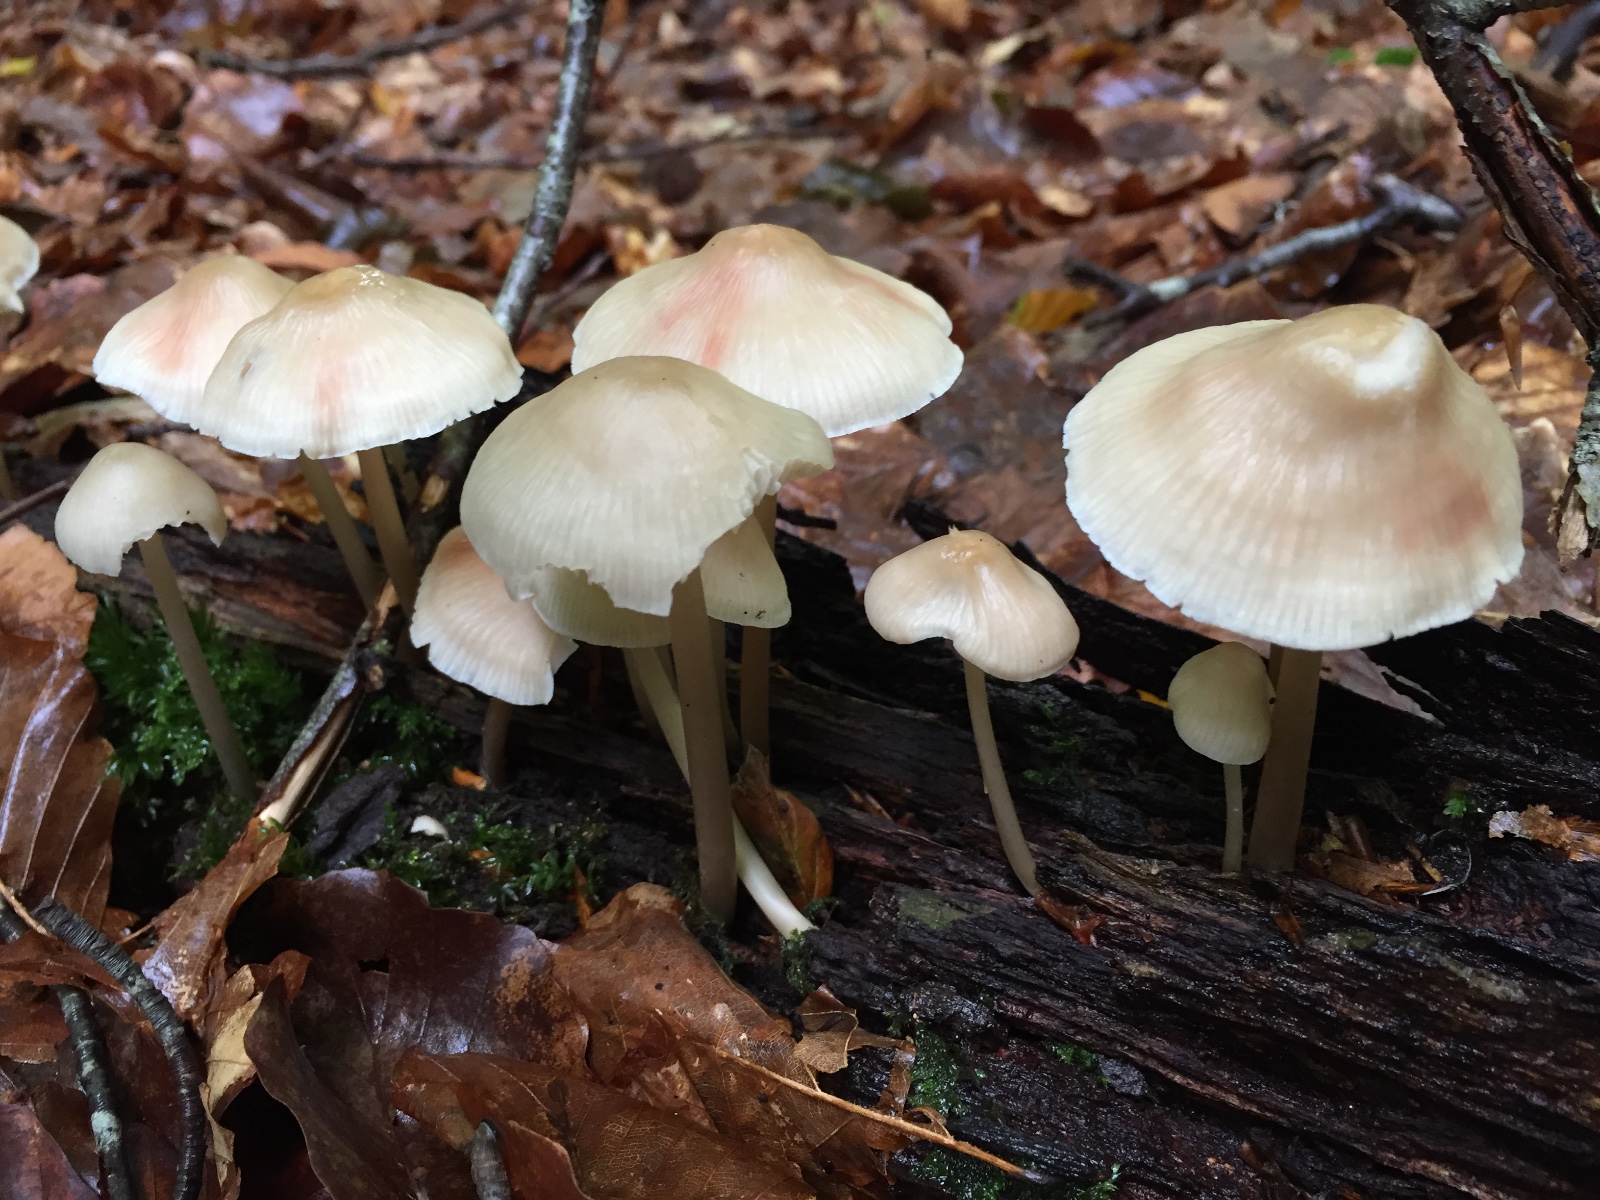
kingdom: Fungi
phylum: Basidiomycota
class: Agaricomycetes
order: Agaricales
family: Mycenaceae
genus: Mycena
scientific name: Mycena galericulata
